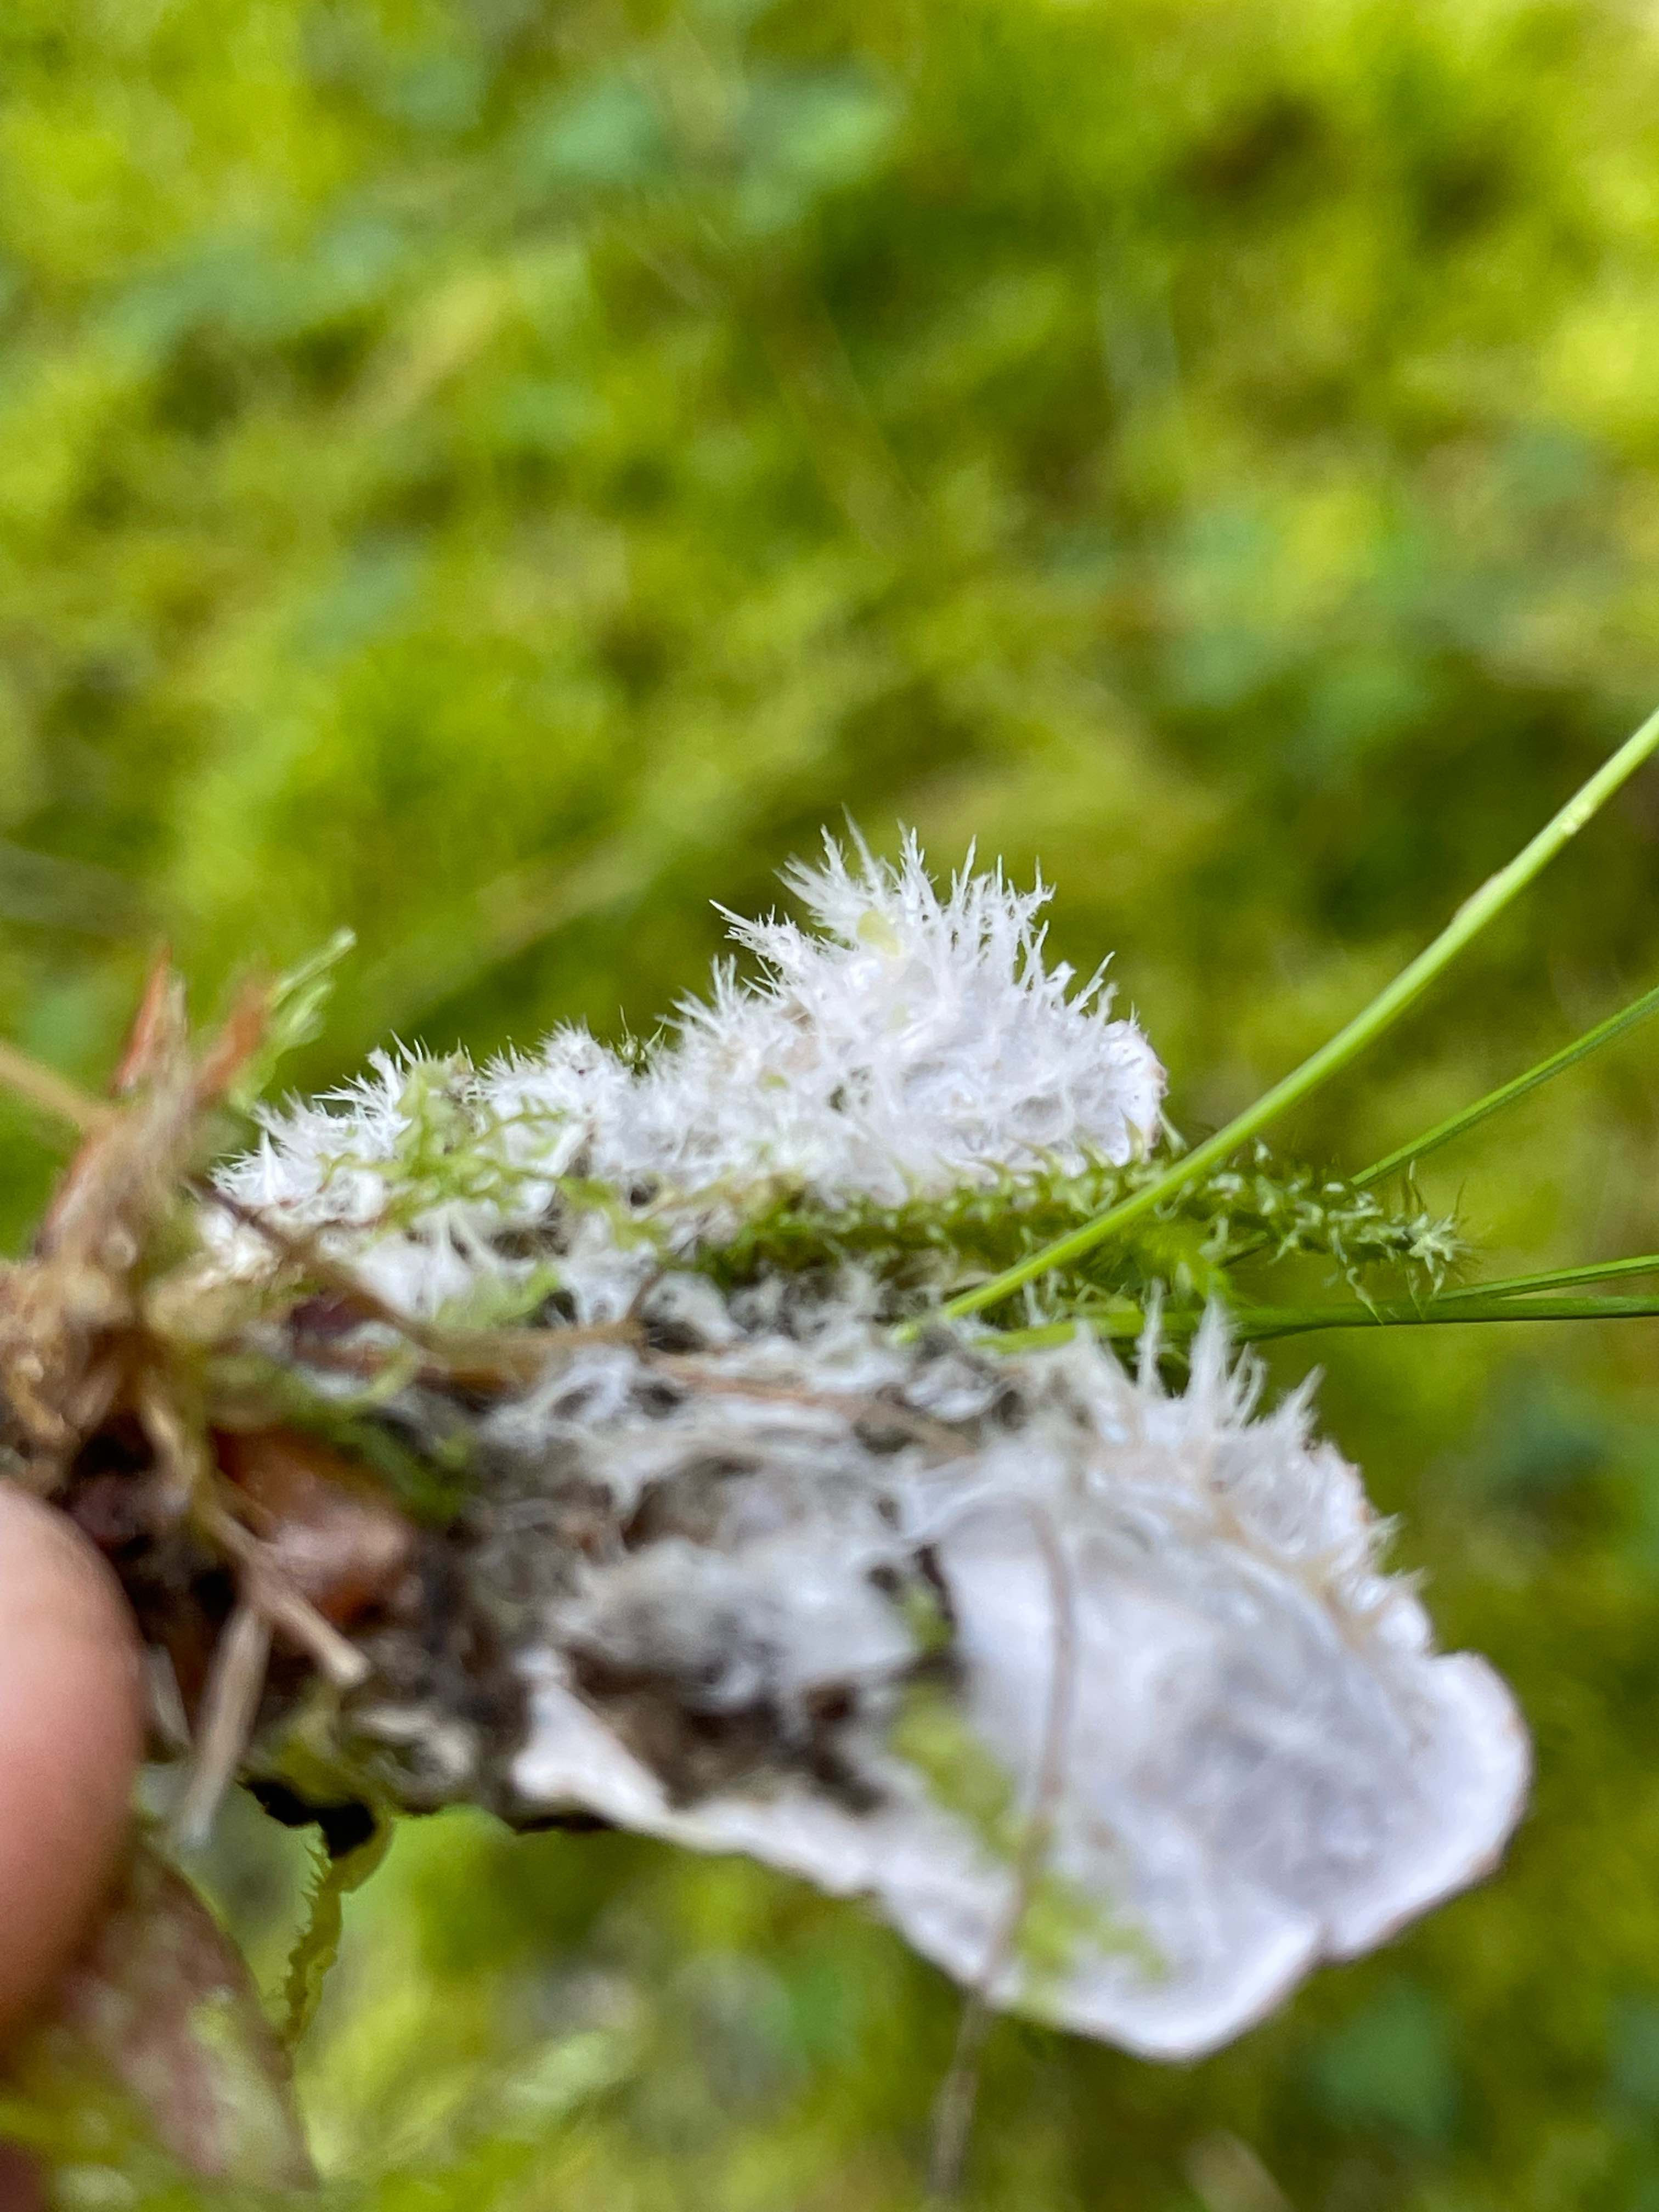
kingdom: Fungi
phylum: Ascomycota
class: Lecanoromycetes
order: Peltigerales
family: Peltigeraceae
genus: Peltigera
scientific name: Peltigera canina
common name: hunde-skjoldlav
